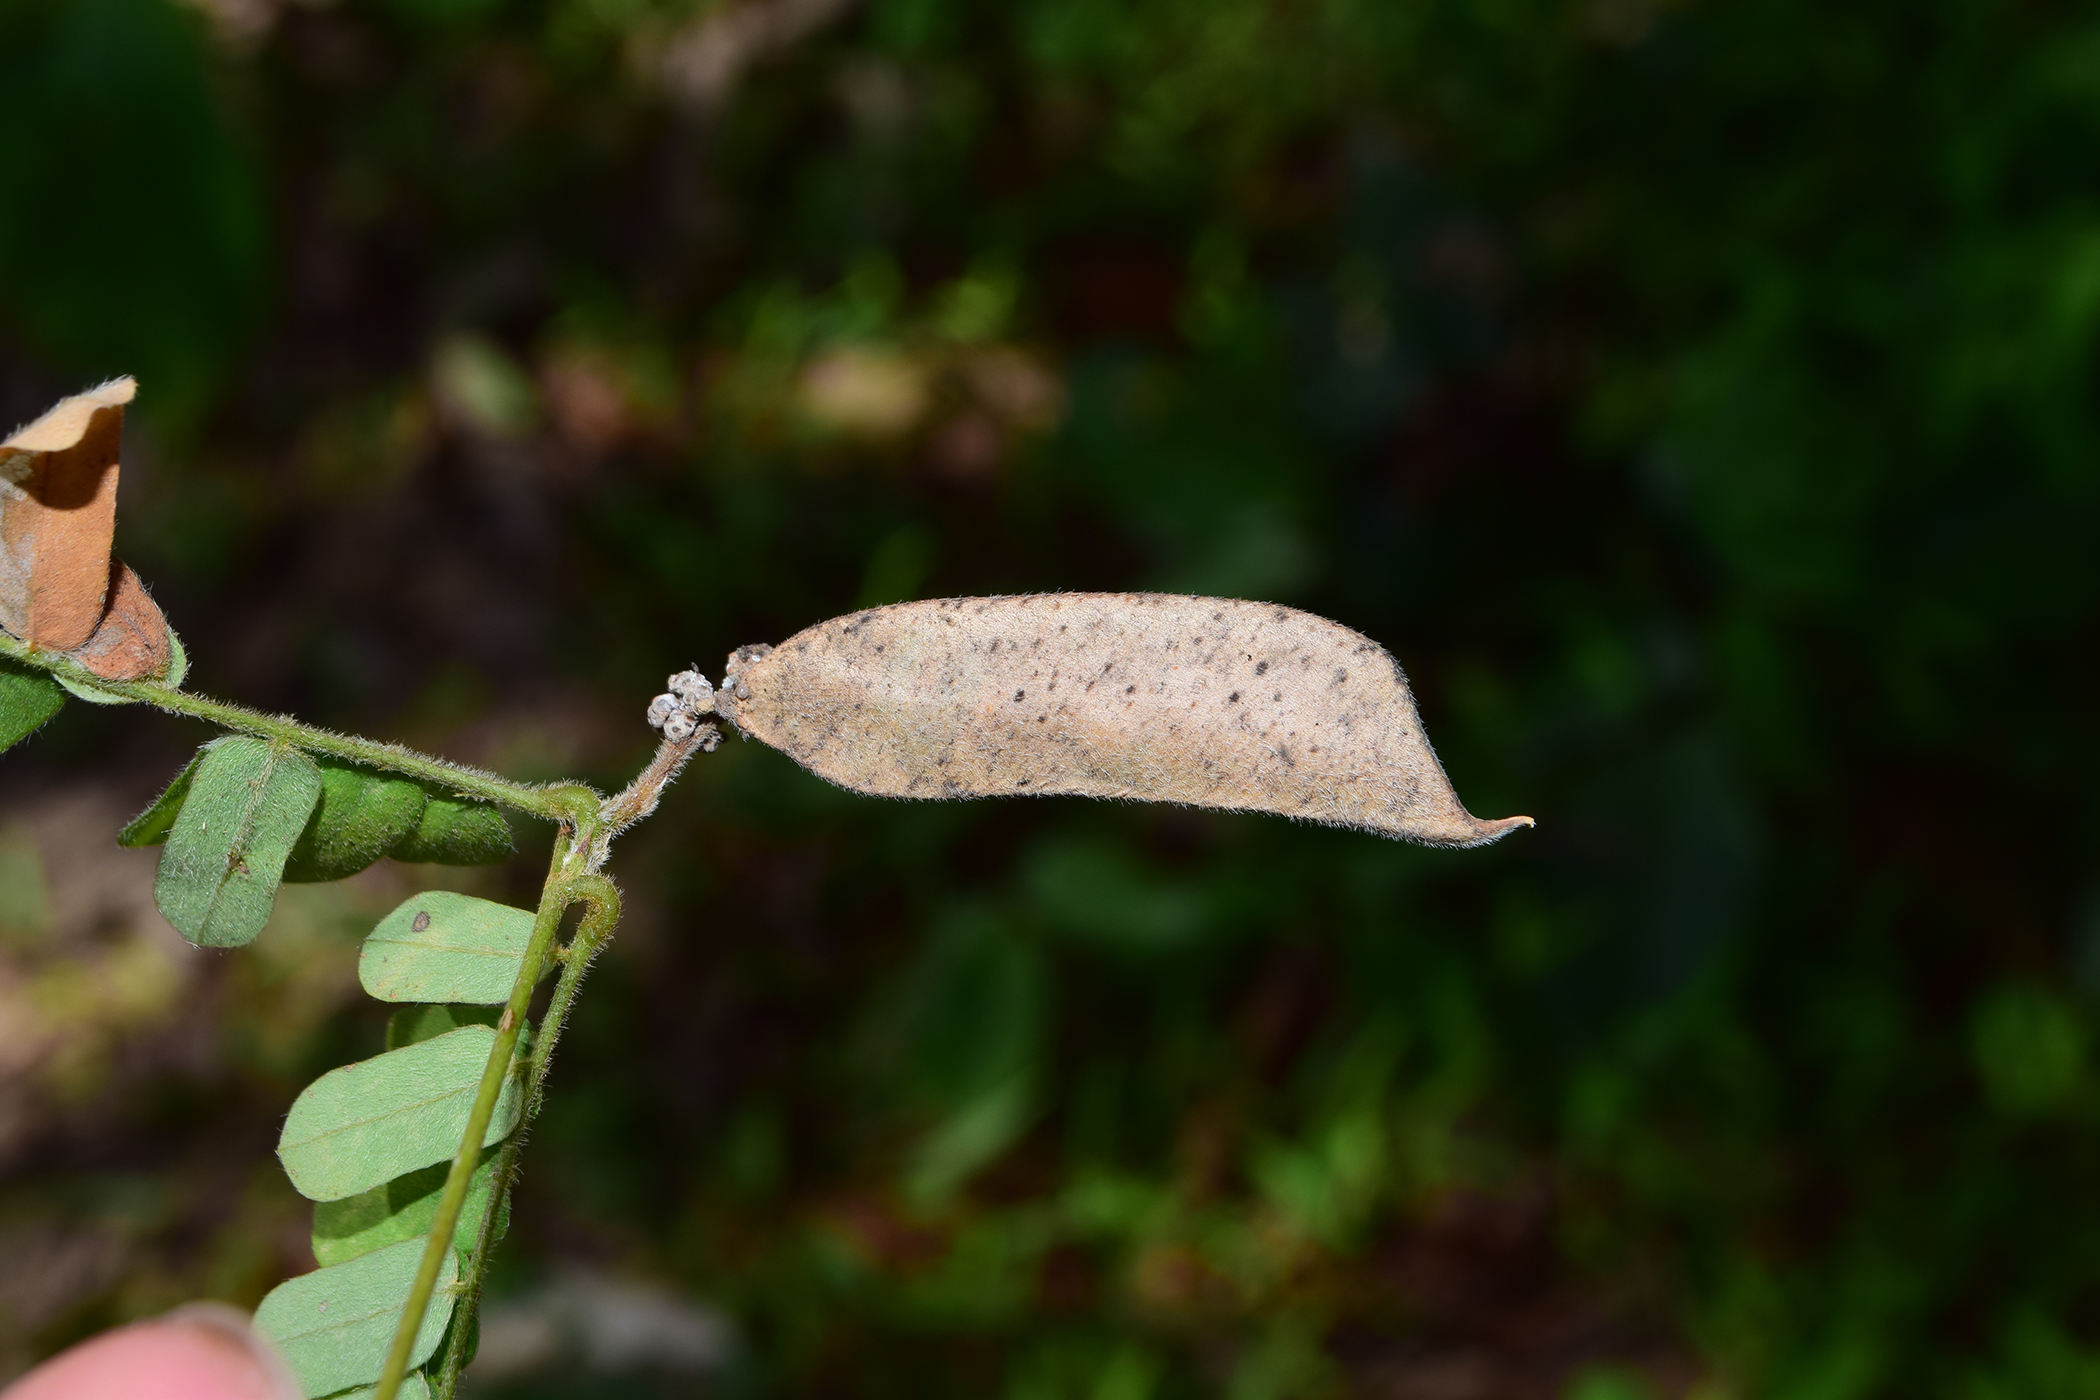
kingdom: Plantae
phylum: Tracheophyta
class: Magnoliopsida
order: Fabales
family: Fabaceae
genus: Abrus
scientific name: Abrus fruticulosus
